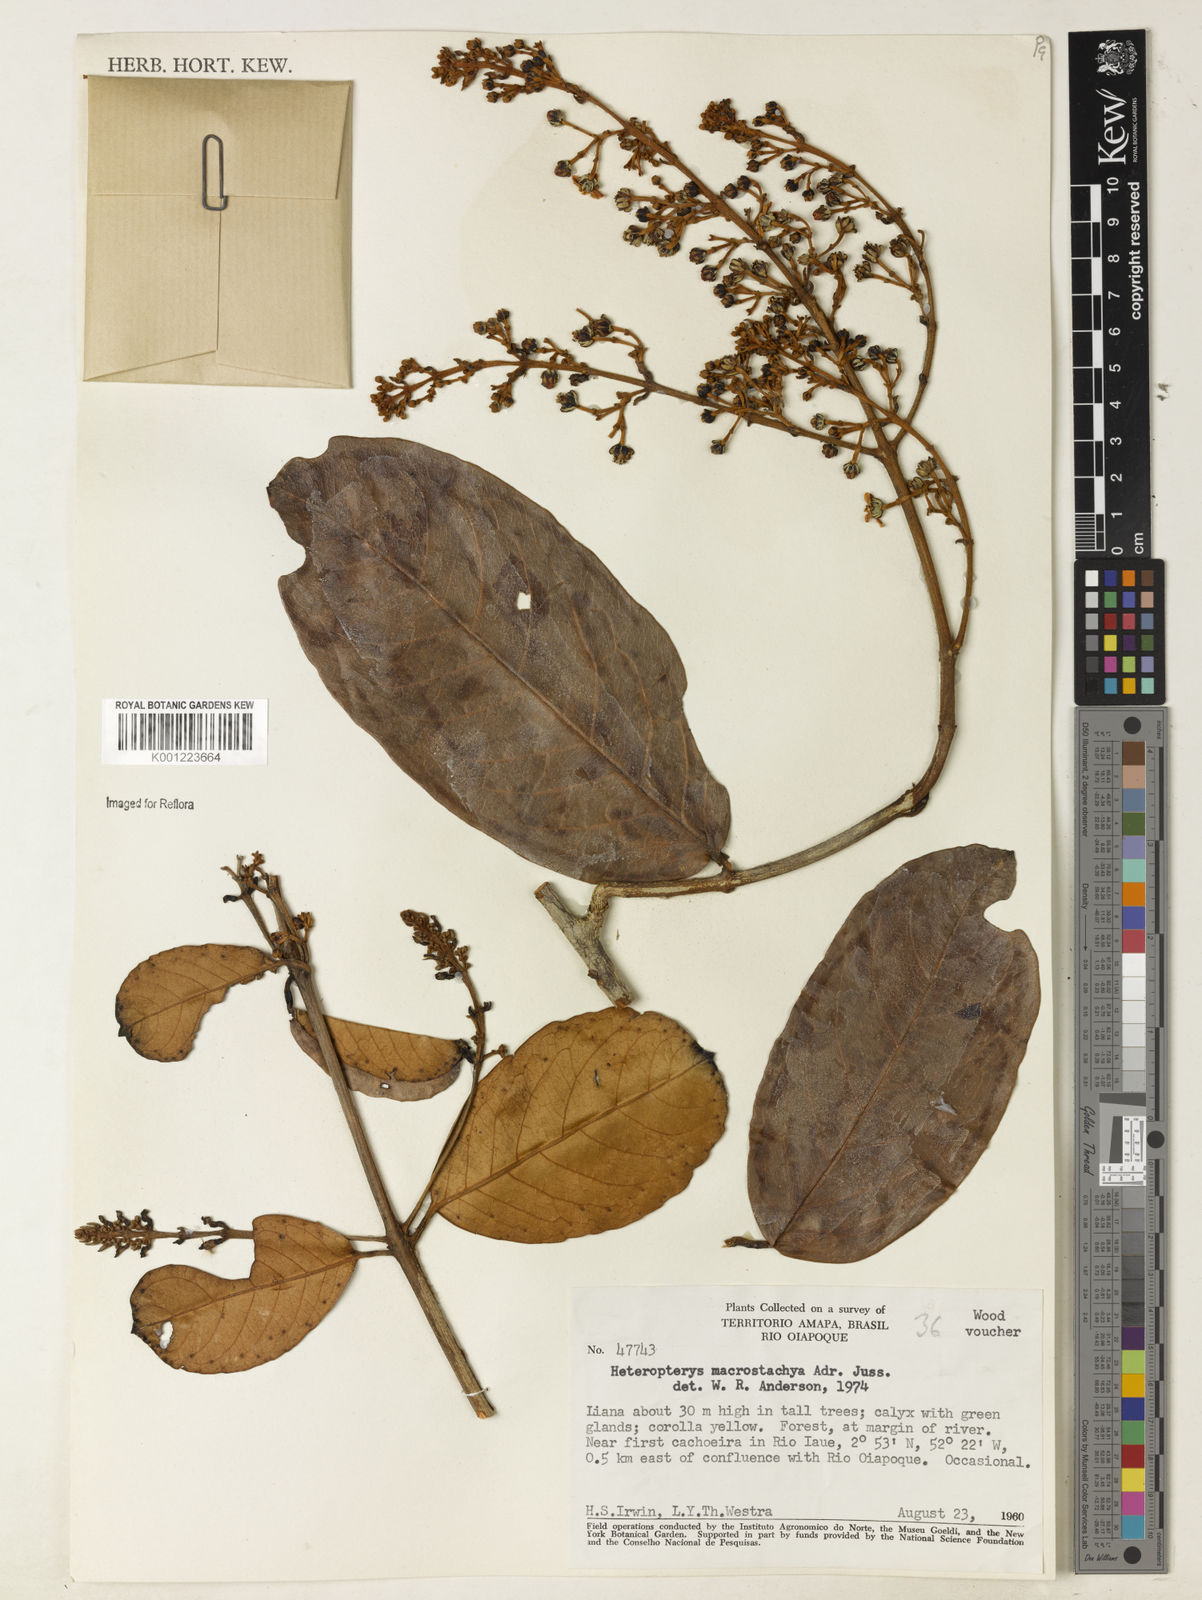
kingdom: Plantae
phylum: Tracheophyta
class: Magnoliopsida
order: Malpighiales
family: Malpighiaceae
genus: Heteropterys
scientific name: Heteropterys macrostachya
